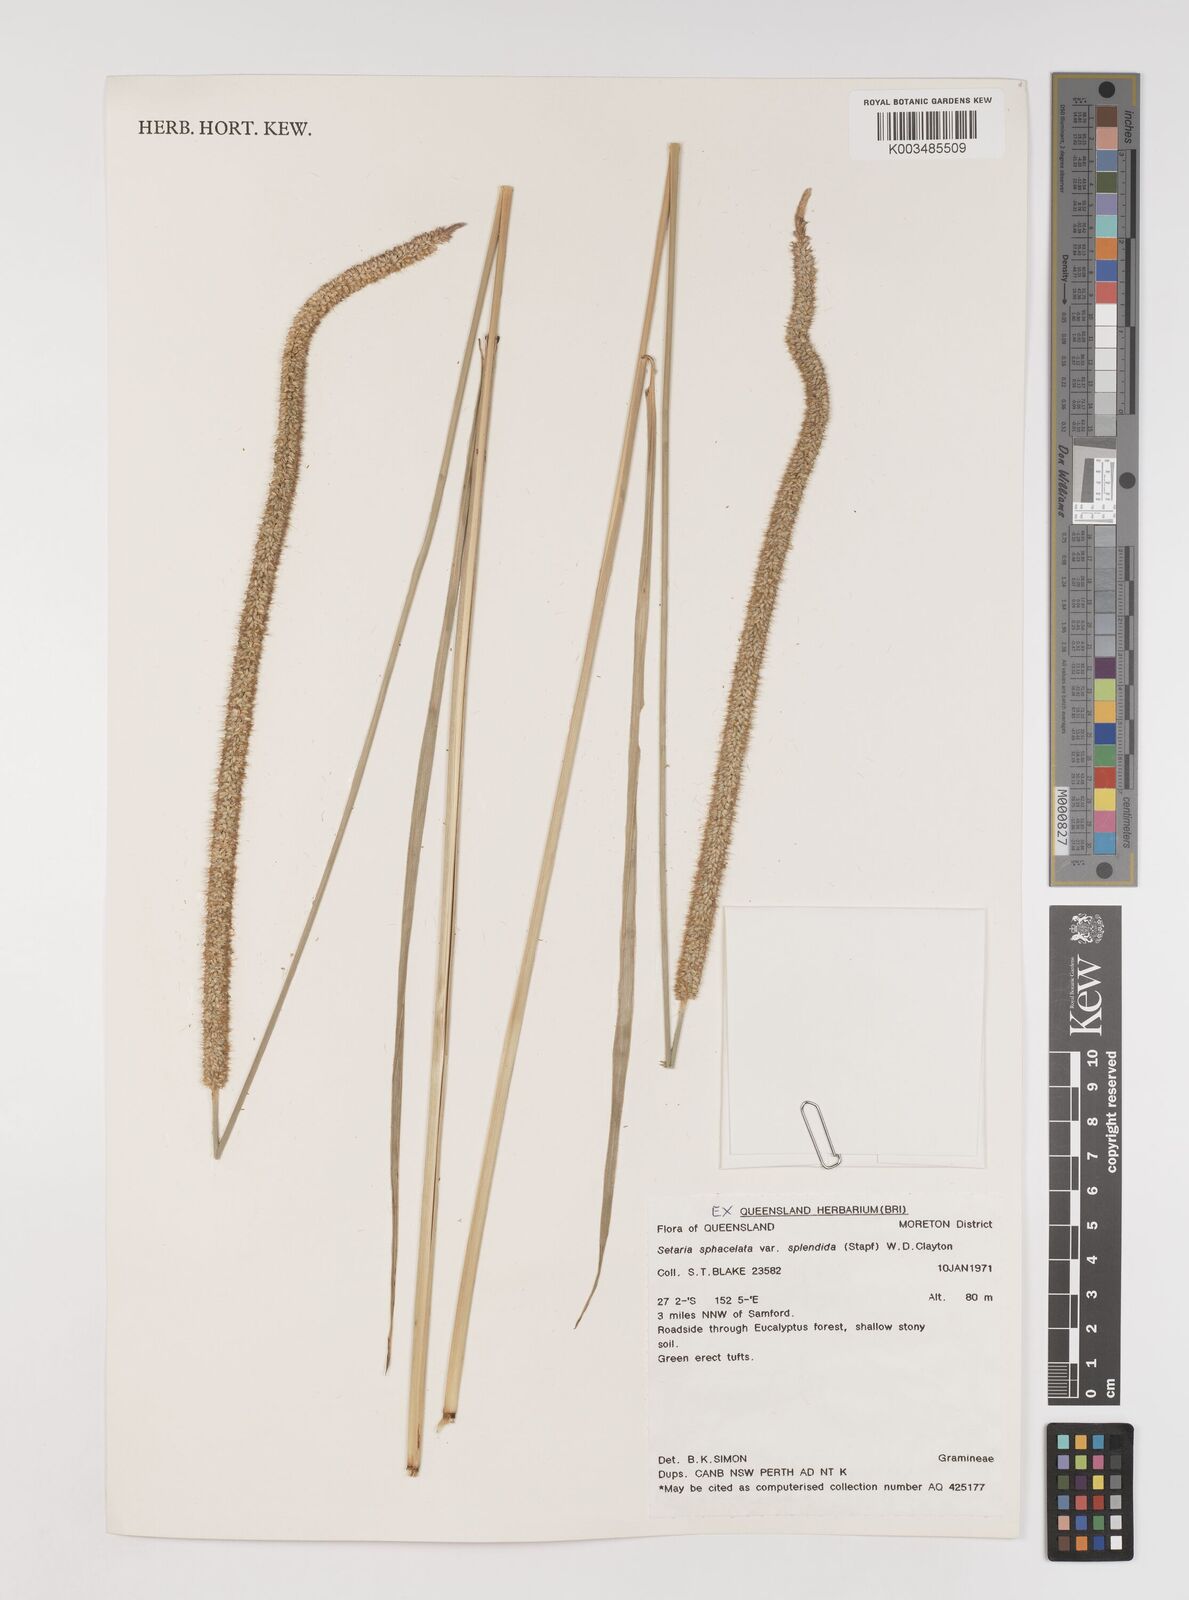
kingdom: Plantae
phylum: Tracheophyta
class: Liliopsida
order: Poales
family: Poaceae
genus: Setaria
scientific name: Setaria sphacelata
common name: African bristlegrass
